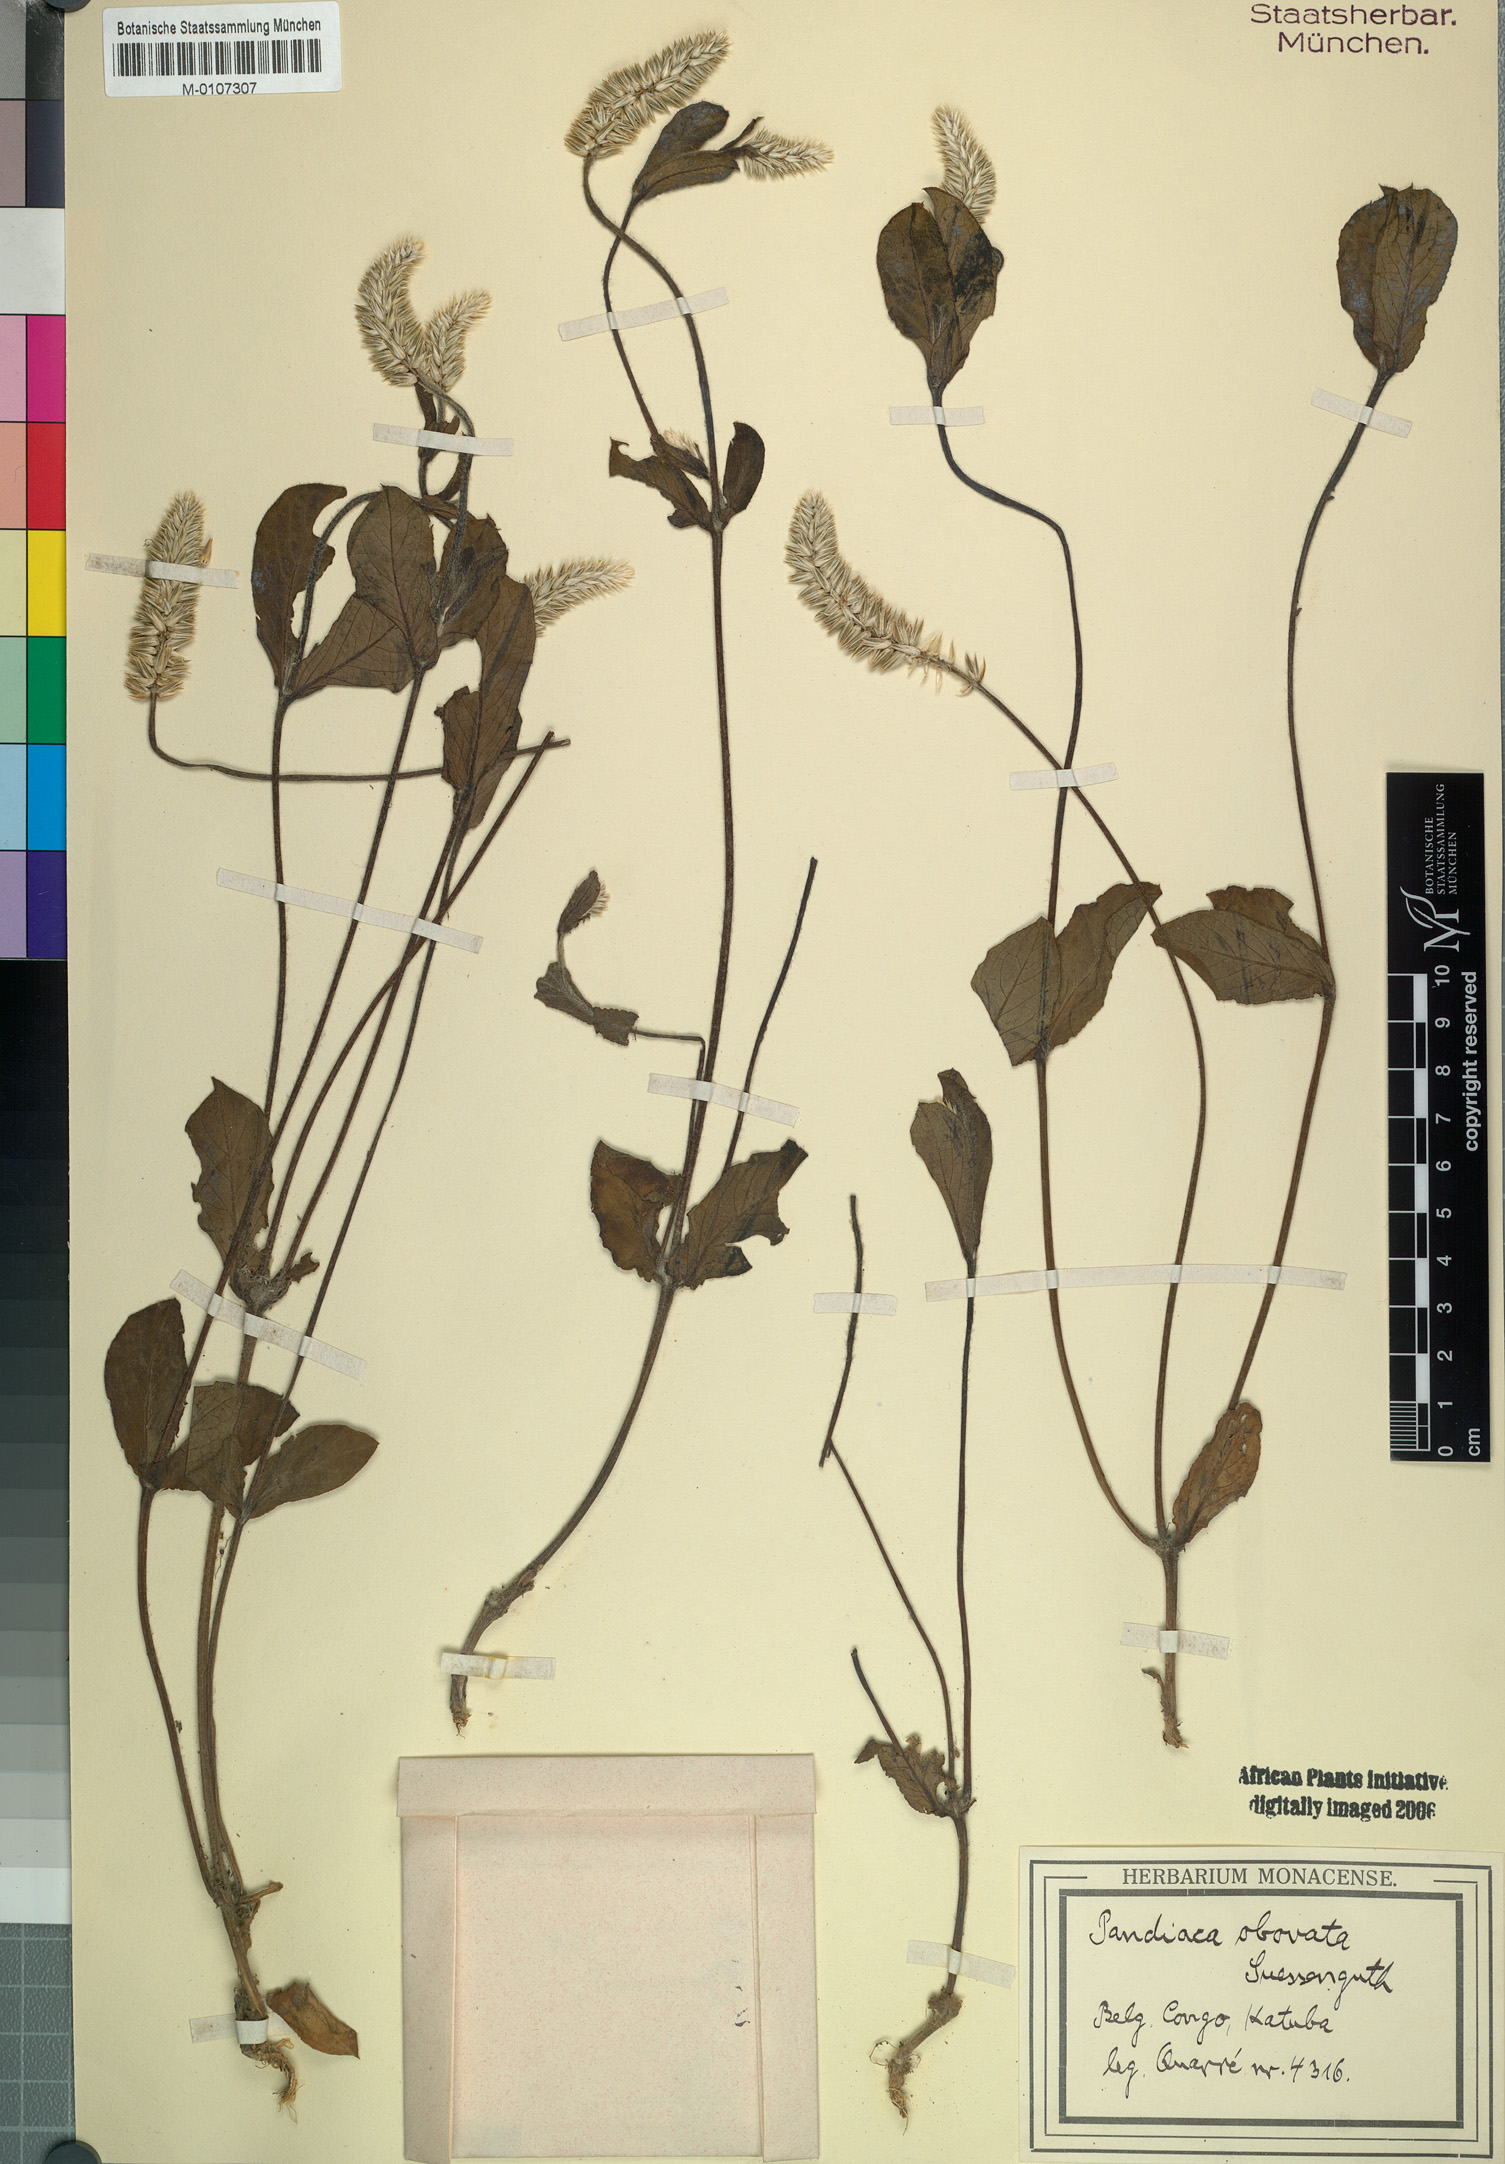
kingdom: Plantae
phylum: Tracheophyta
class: Magnoliopsida
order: Caryophyllales
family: Amaranthaceae
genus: Pandiaka
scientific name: Pandiaka carsonii
